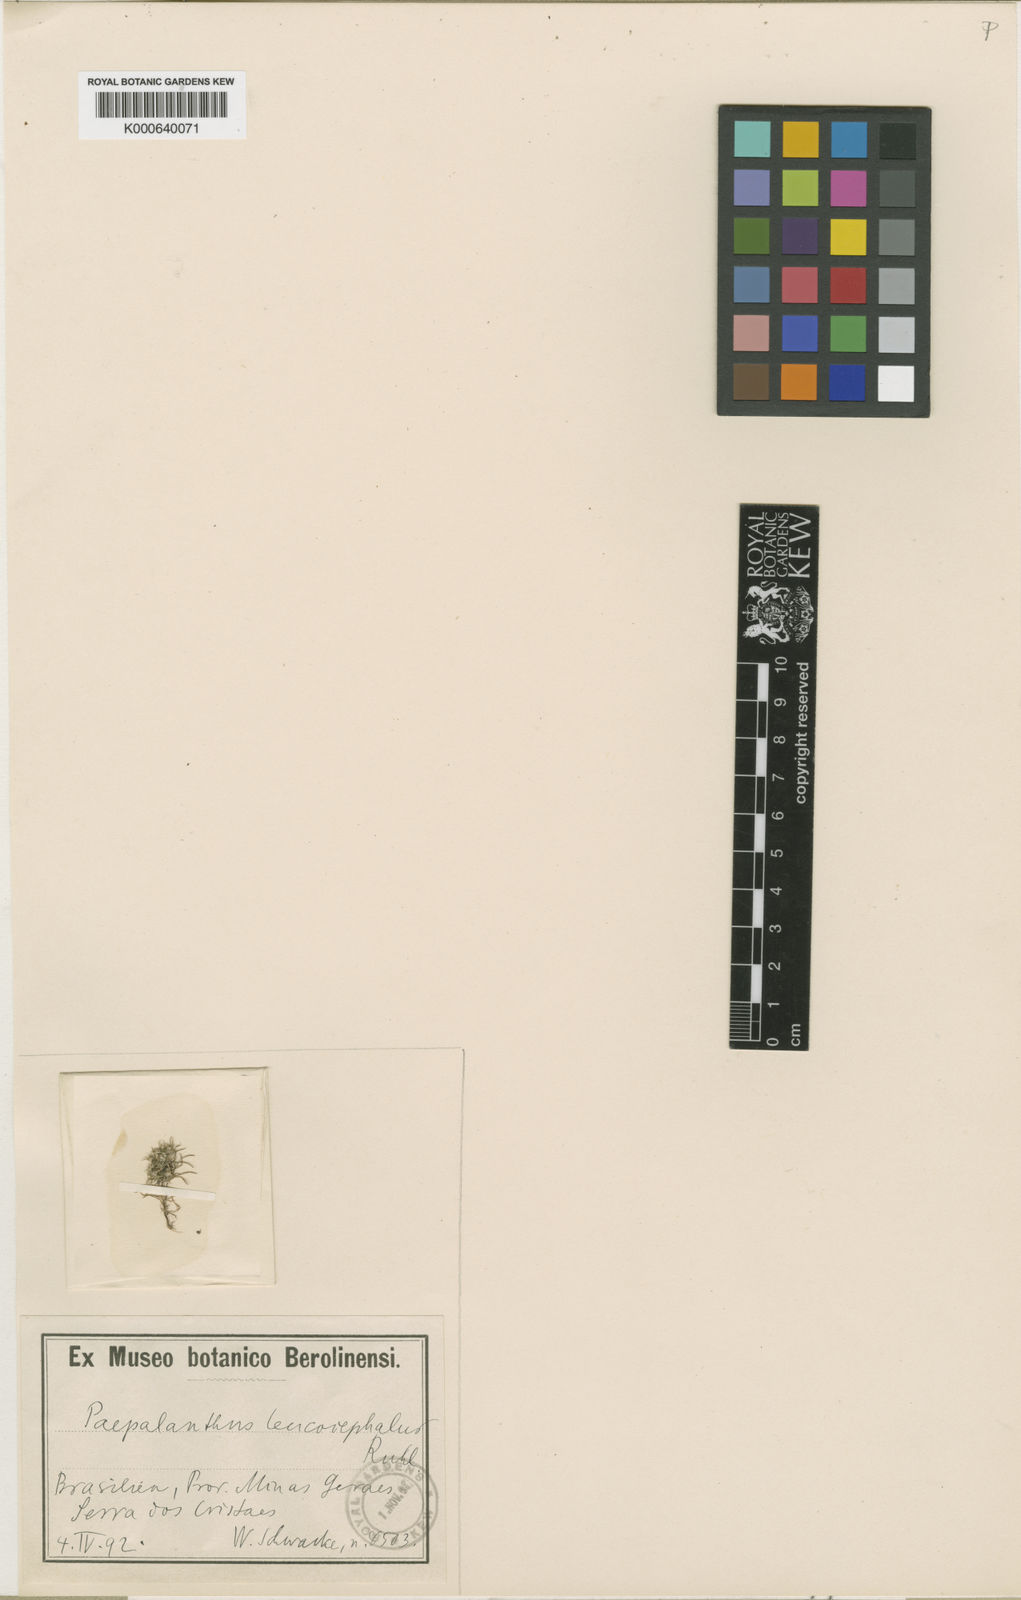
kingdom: Plantae
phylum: Tracheophyta
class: Liliopsida
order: Poales
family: Eriocaulaceae
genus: Paepalanthus
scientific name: Paepalanthus leucocephalus
